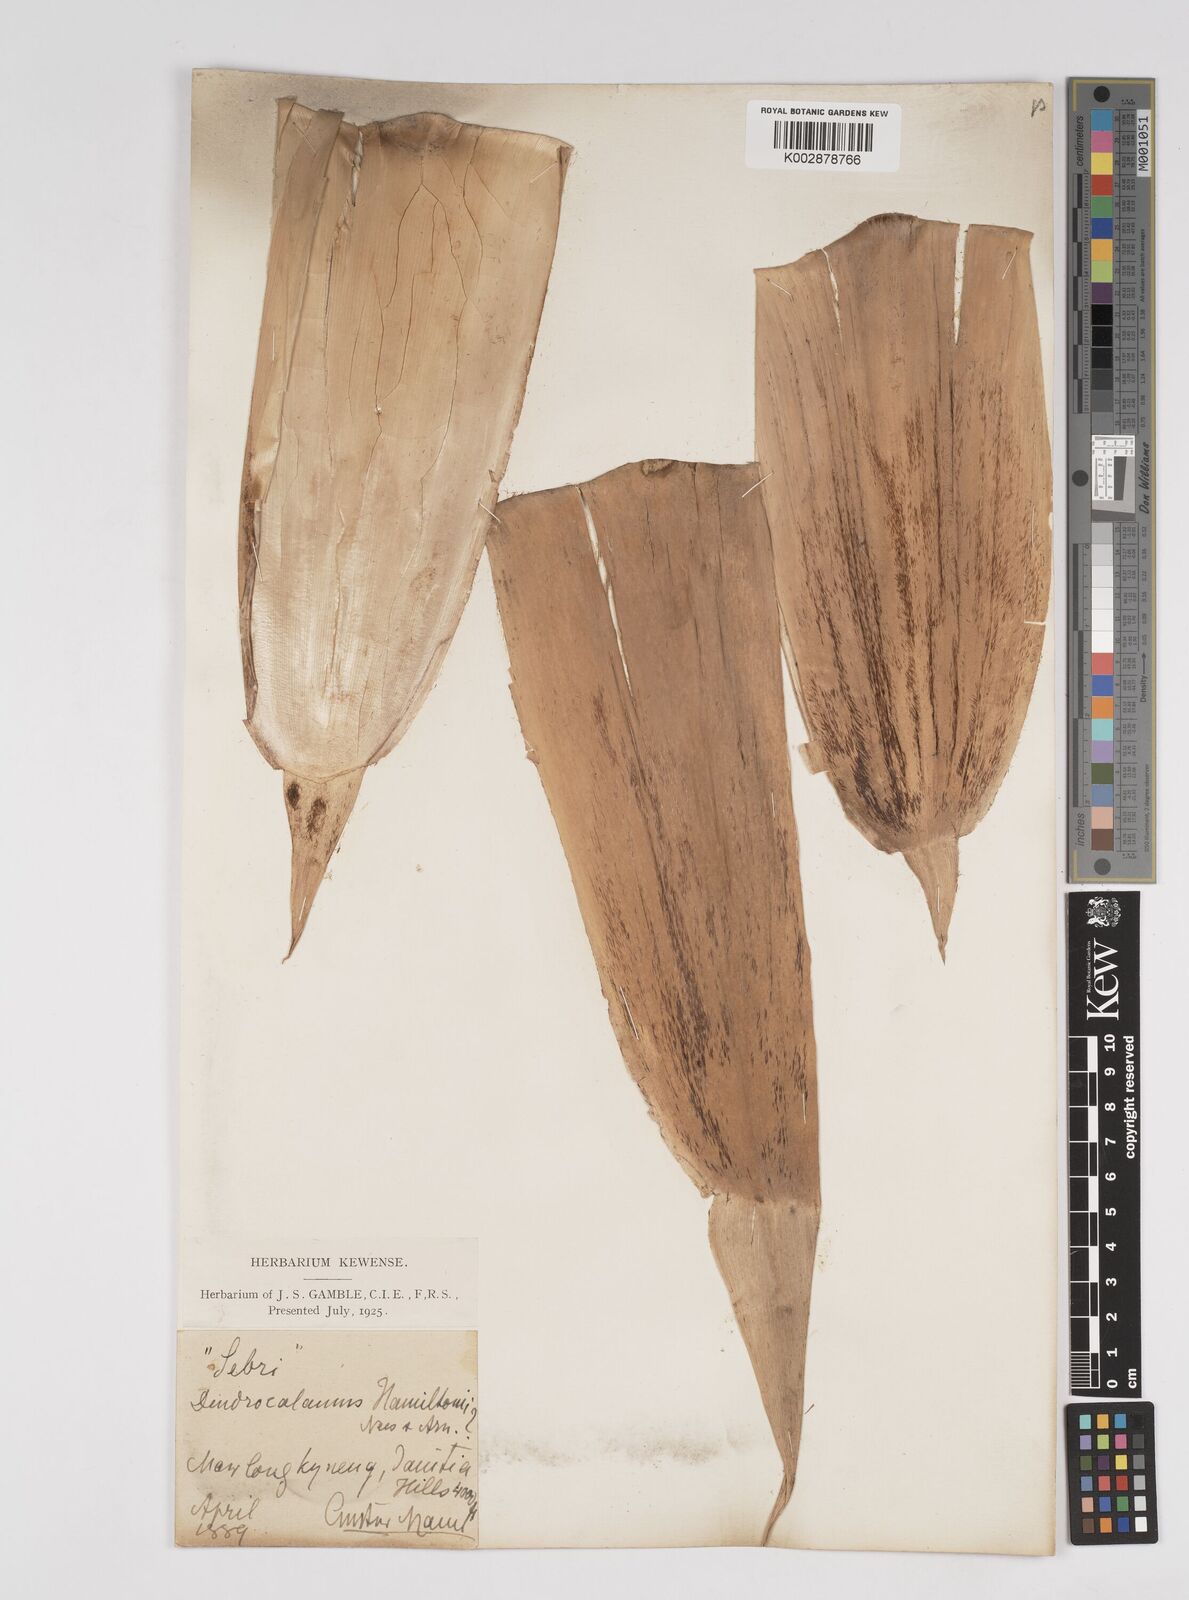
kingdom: Plantae
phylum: Tracheophyta
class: Liliopsida
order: Poales
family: Poaceae
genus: Dendrocalamus
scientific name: Dendrocalamus hamiltonii
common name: Tama bamboo
